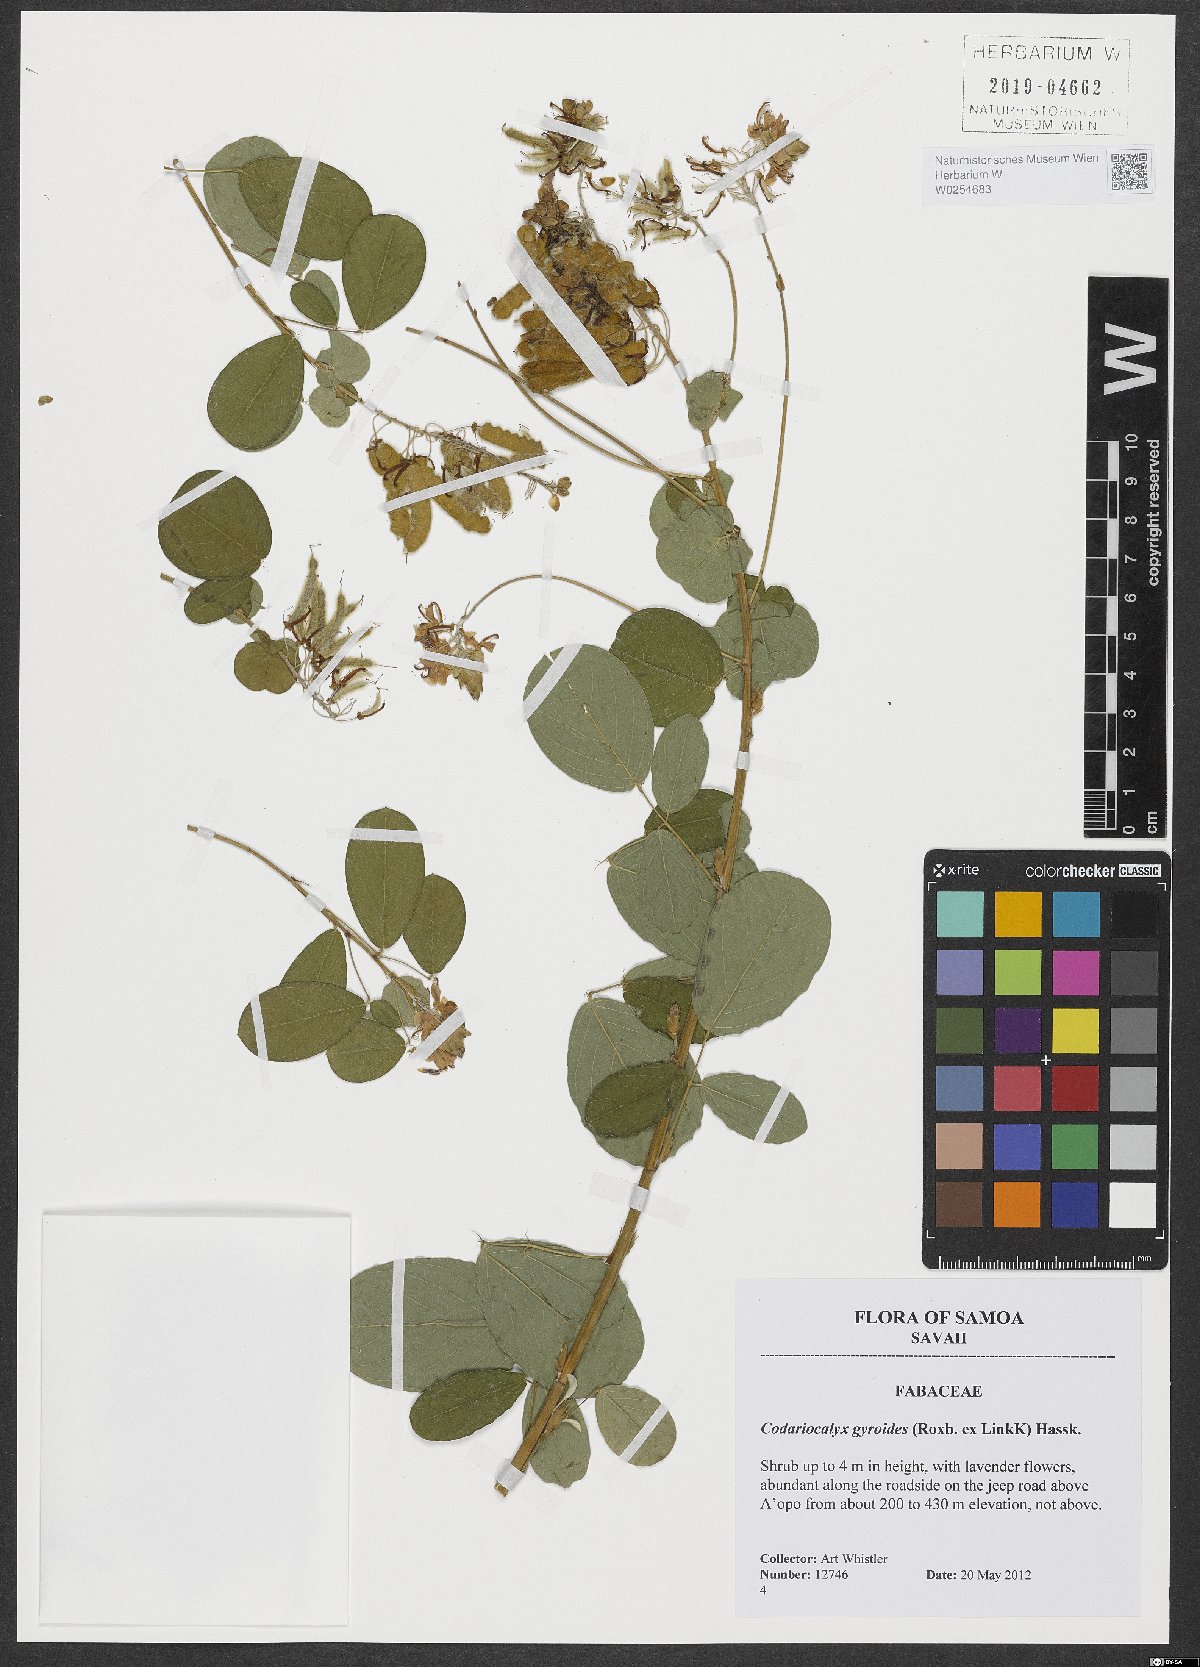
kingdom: Plantae
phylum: Tracheophyta
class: Magnoliopsida
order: Fabales
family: Fabaceae
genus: Codariocalyx
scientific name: Codariocalyx gyroides
